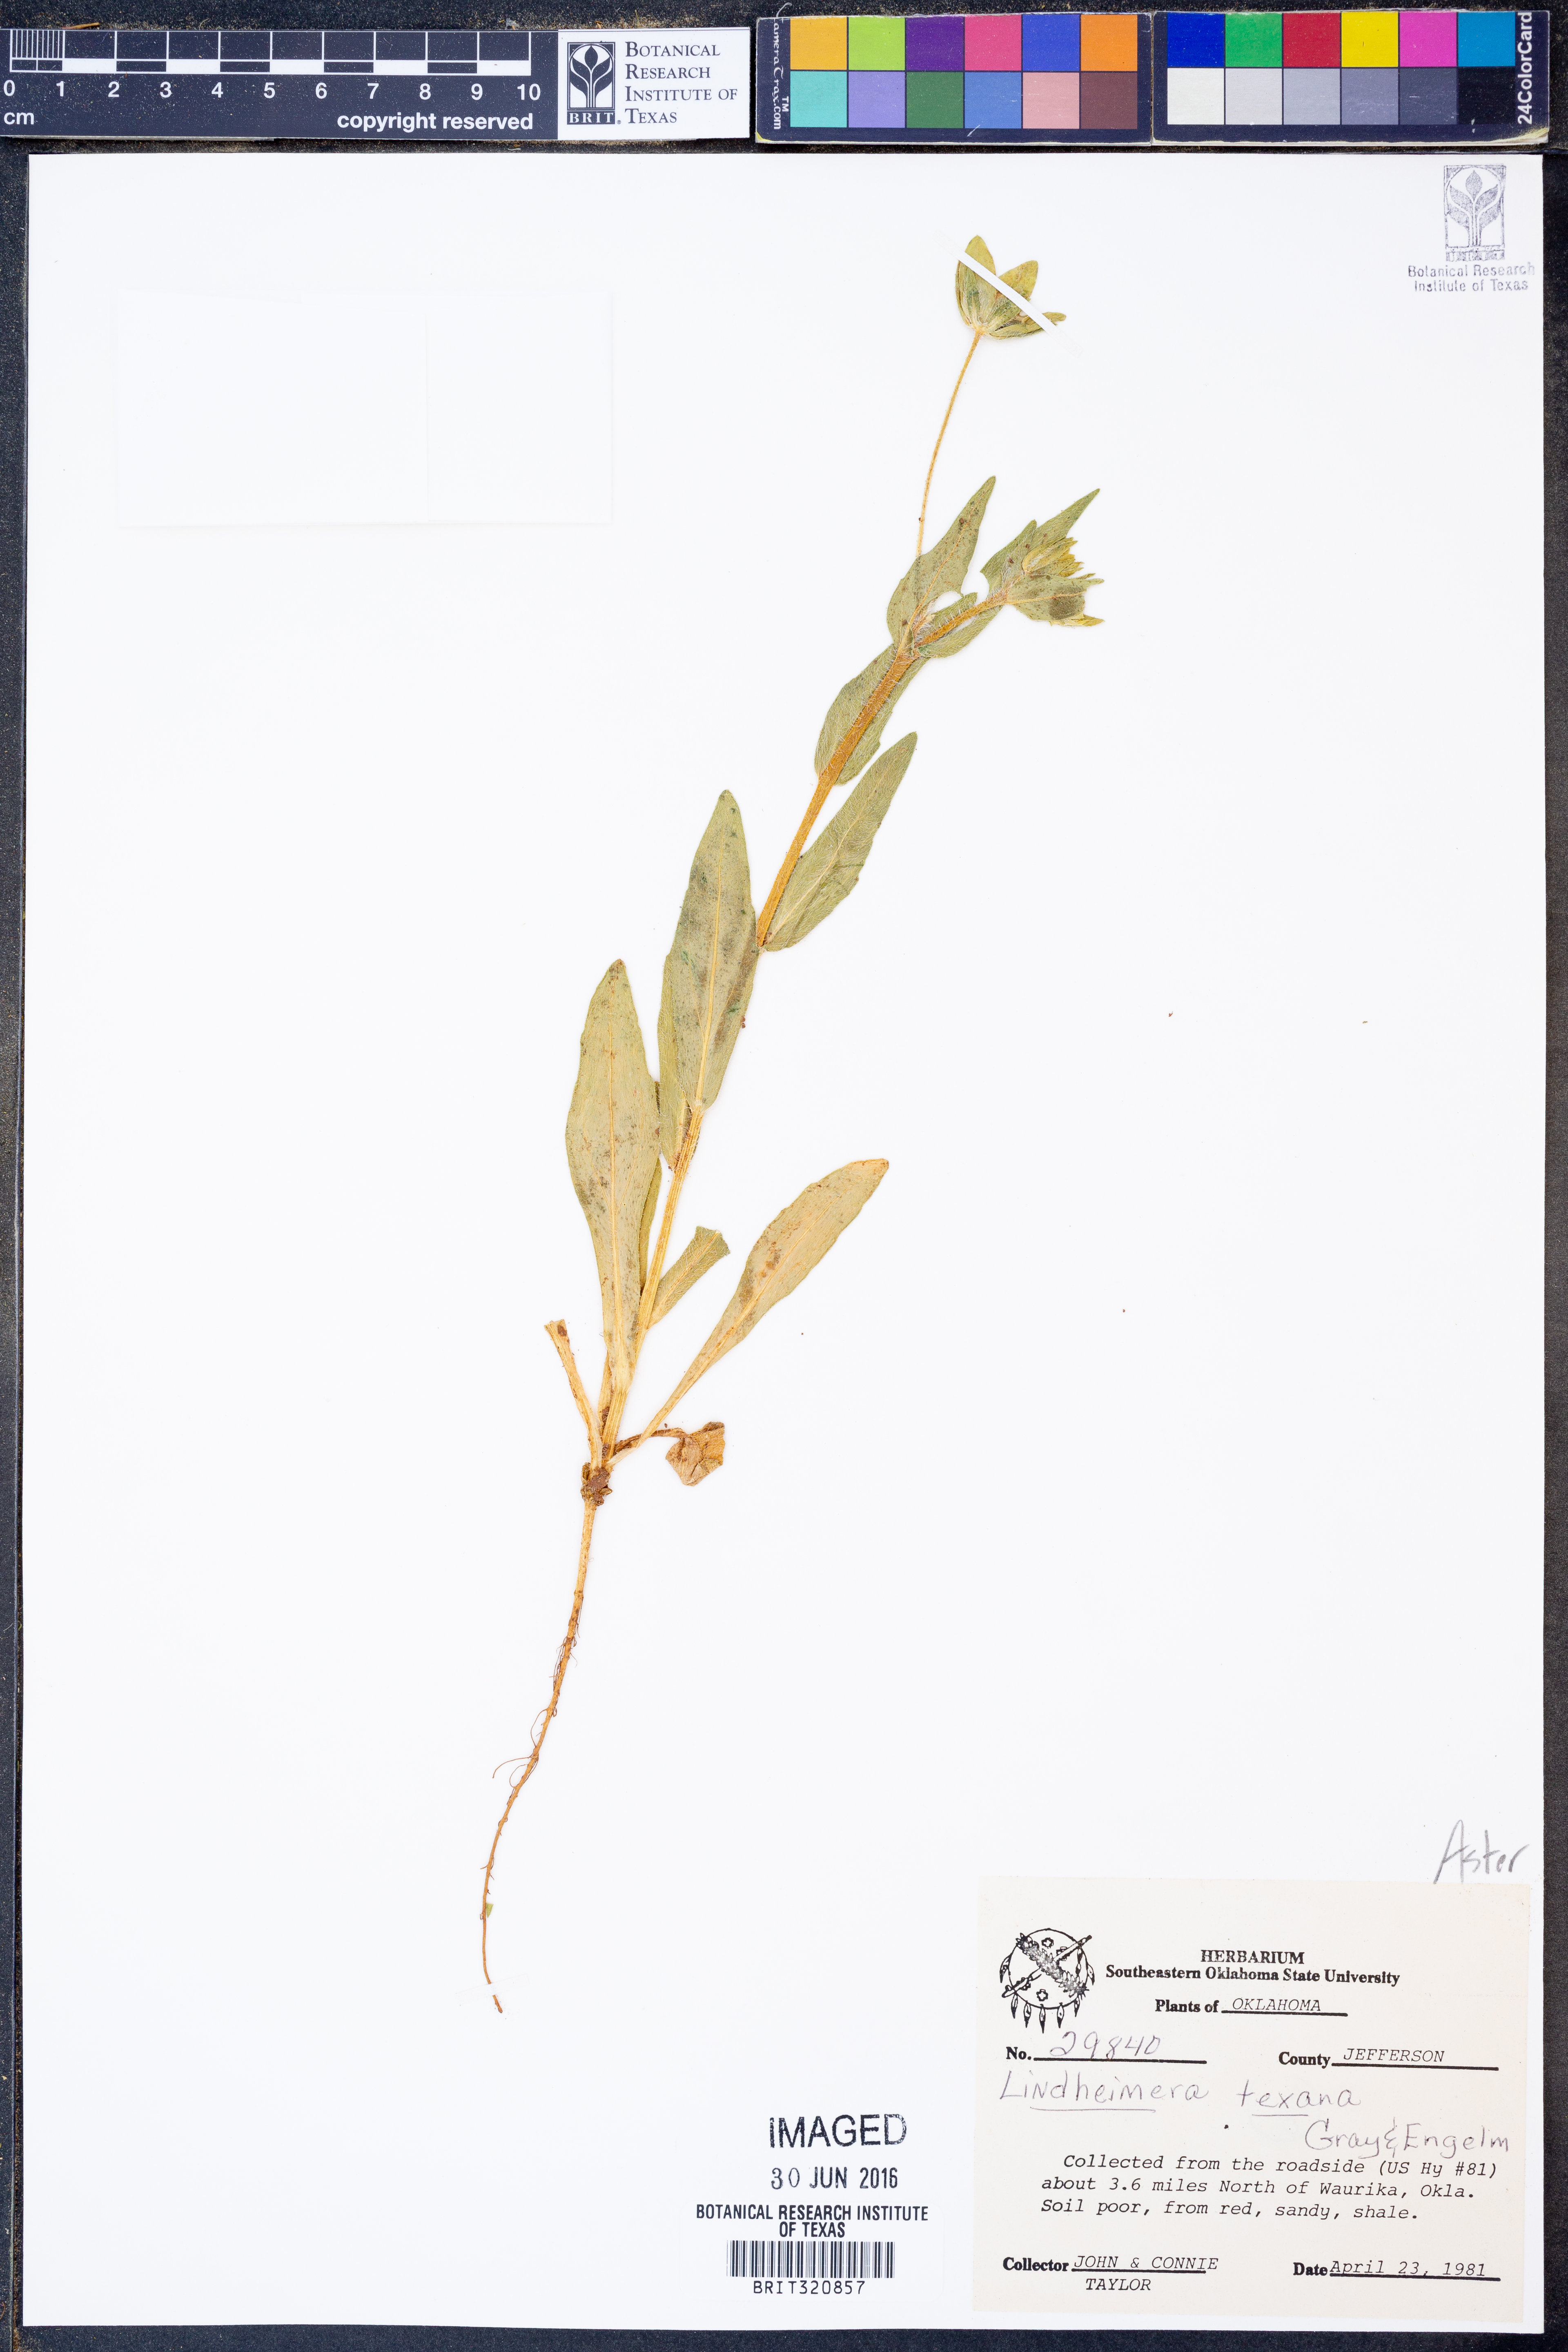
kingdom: Plantae
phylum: Tracheophyta
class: Magnoliopsida
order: Asterales
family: Asteraceae
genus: Lindheimera
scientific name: Lindheimera texana
